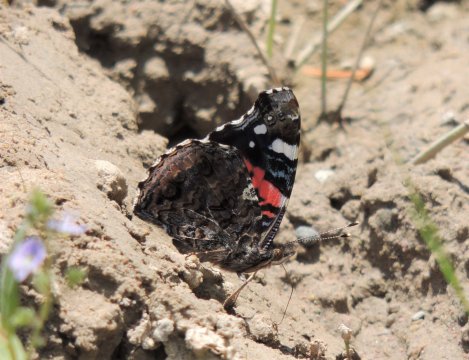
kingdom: Animalia
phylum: Arthropoda
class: Insecta
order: Lepidoptera
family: Nymphalidae
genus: Vanessa
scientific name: Vanessa atalanta
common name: Red Admiral
